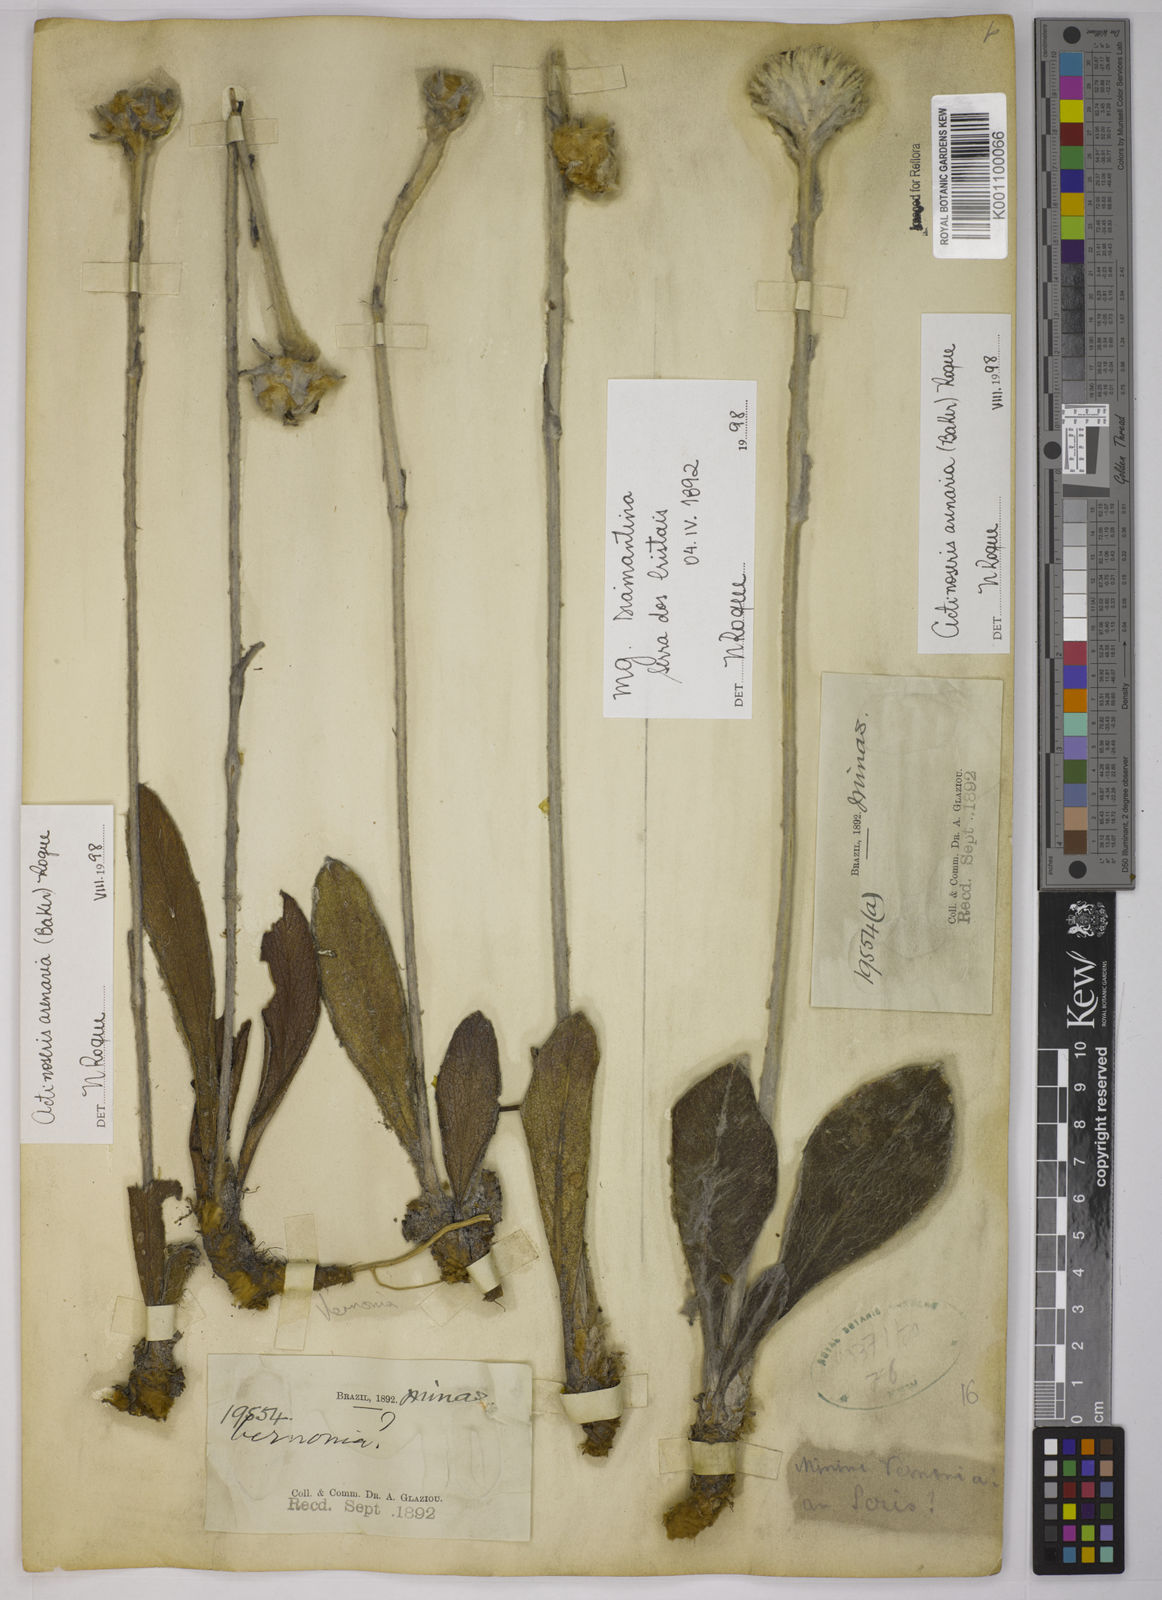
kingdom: Plantae
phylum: Tracheophyta
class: Magnoliopsida
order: Asterales
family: Asteraceae
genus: Richterago
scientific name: Richterago arenaria
